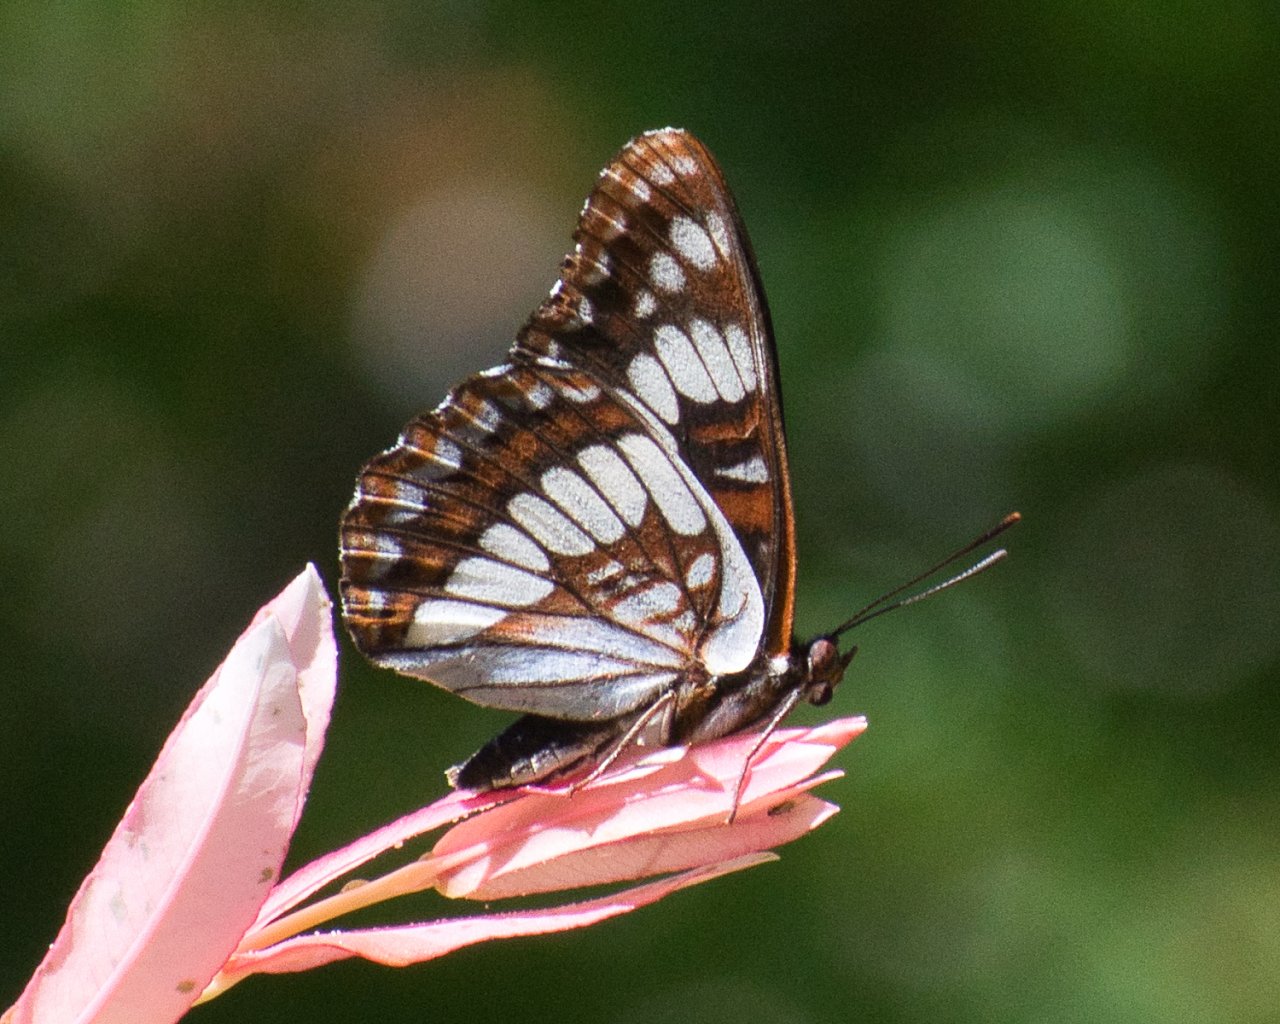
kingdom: Animalia
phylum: Arthropoda
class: Insecta
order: Lepidoptera
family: Nymphalidae
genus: Limenitis
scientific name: Limenitis lorquini
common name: Lorquin's Admiral
